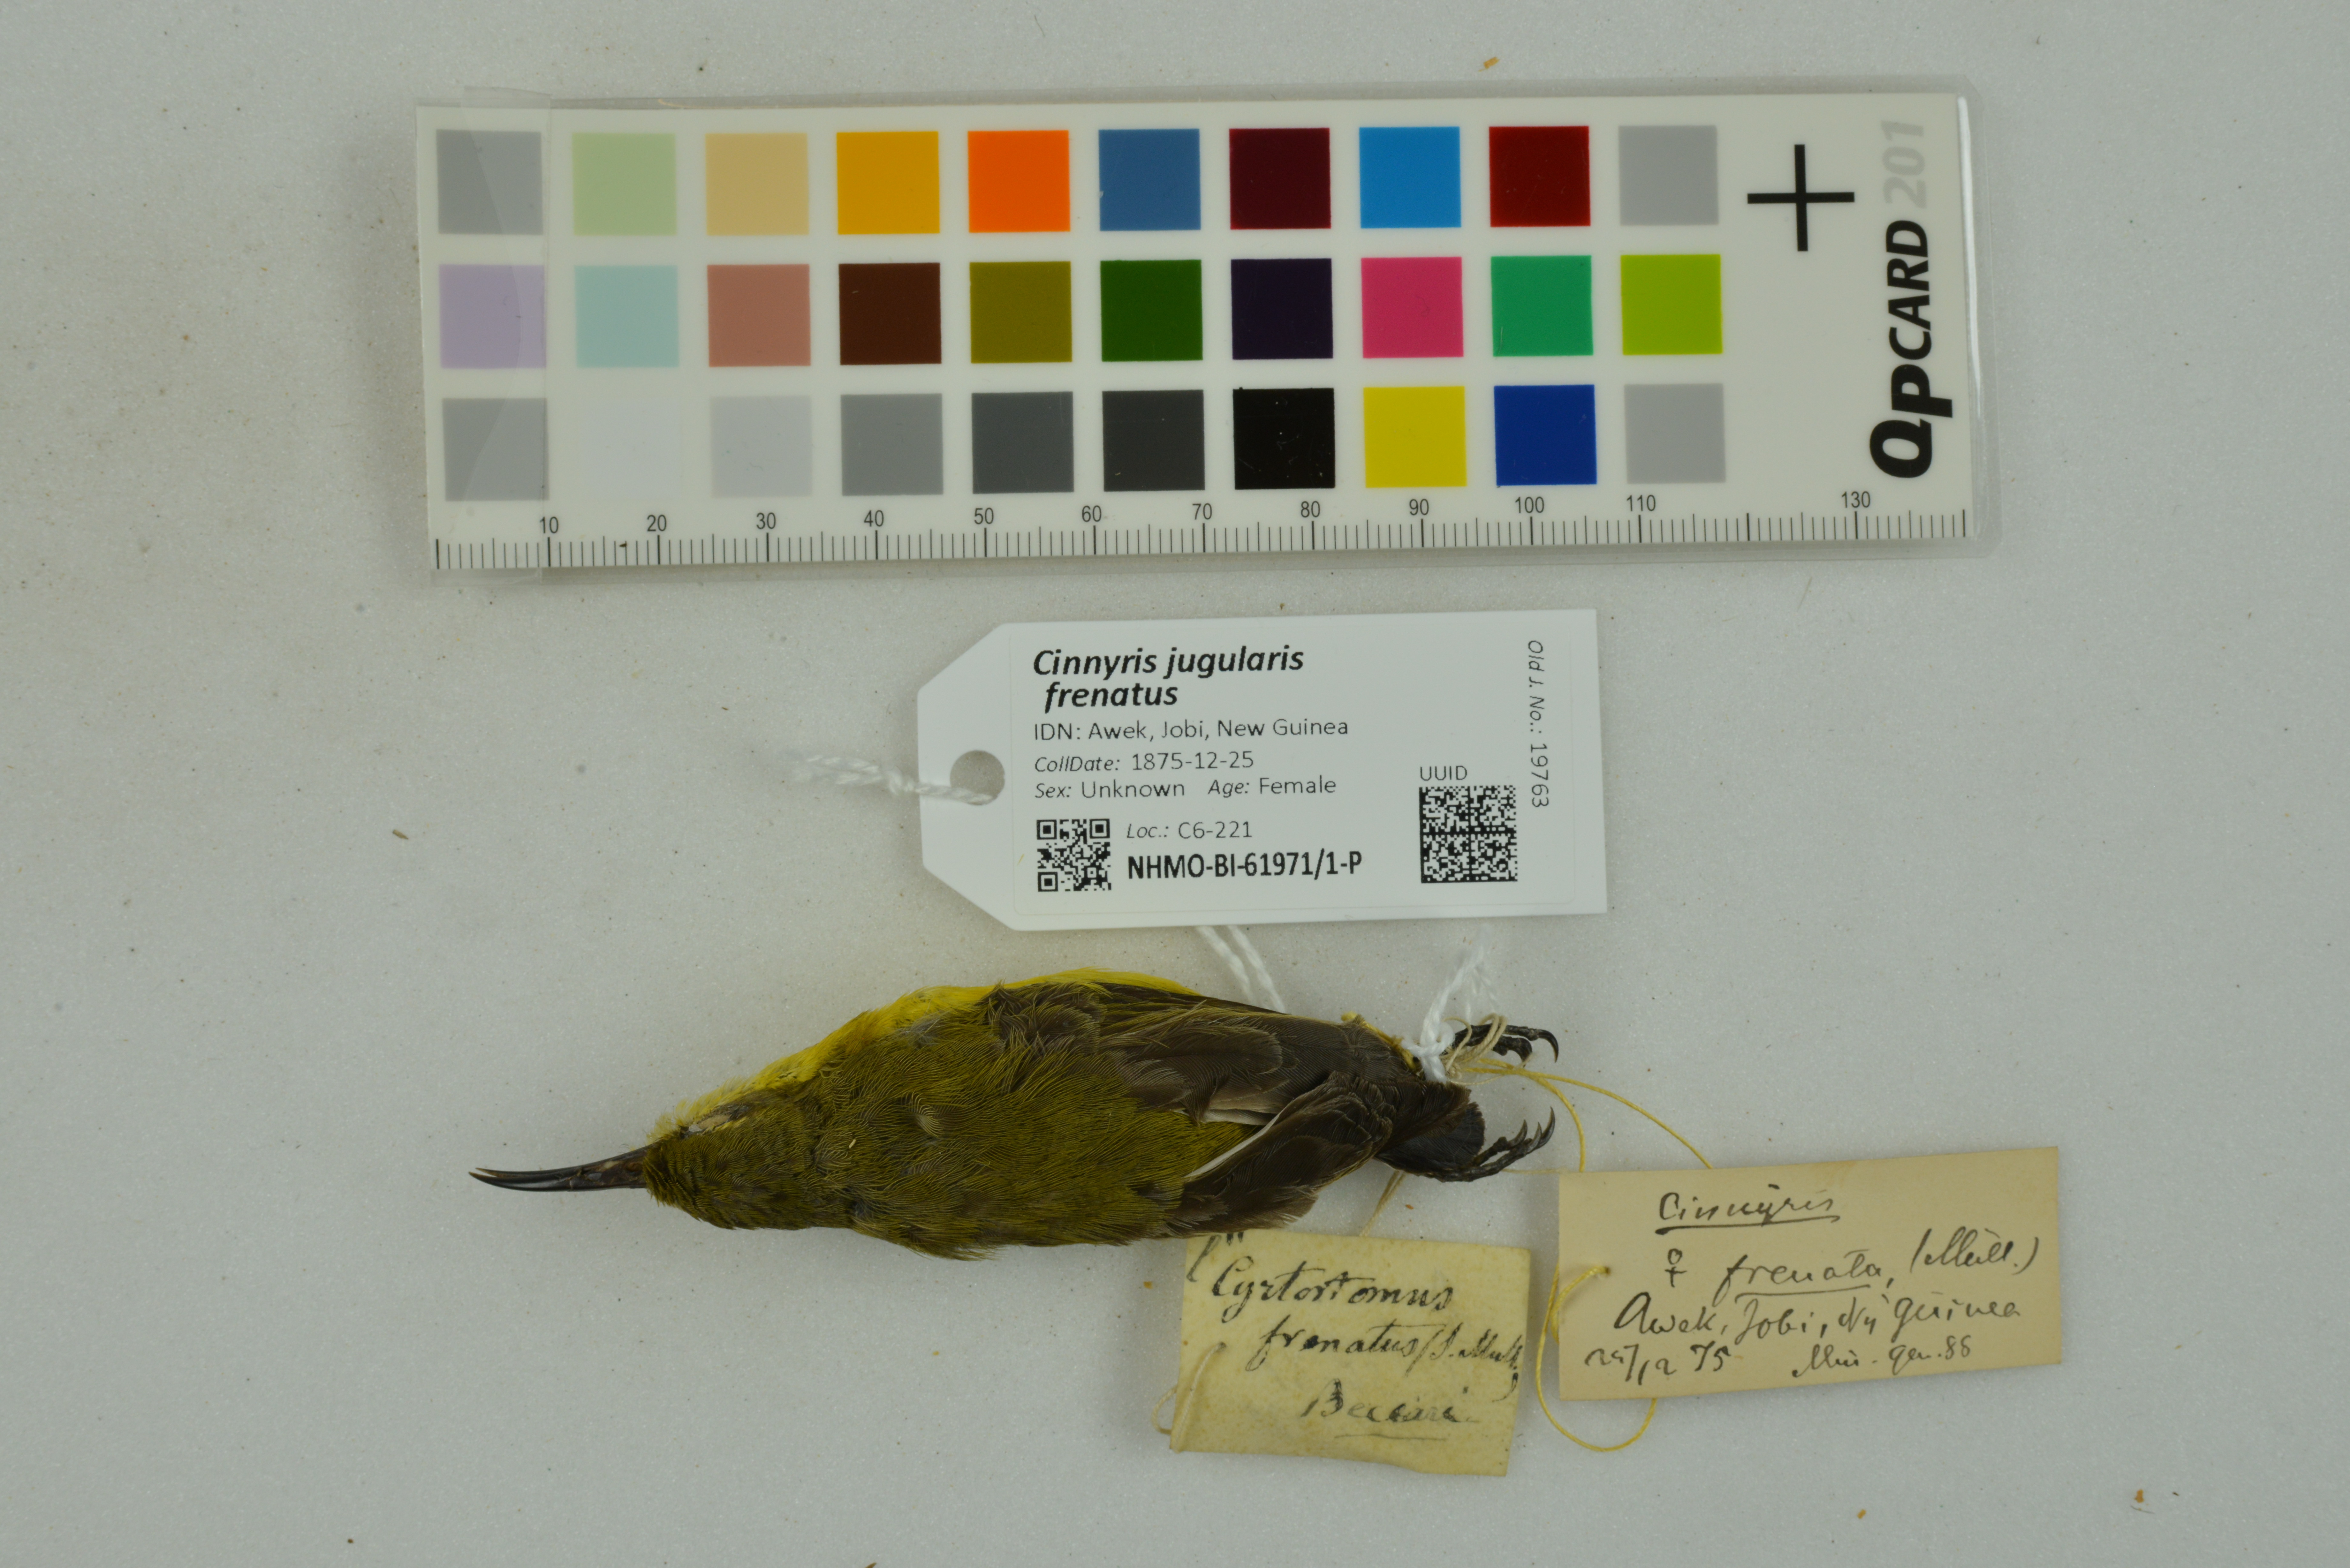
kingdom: Animalia
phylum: Chordata
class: Aves
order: Passeriformes
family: Nectariniidae
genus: Cinnyris
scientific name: Cinnyris jugularis
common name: Olive-backed sunbird
